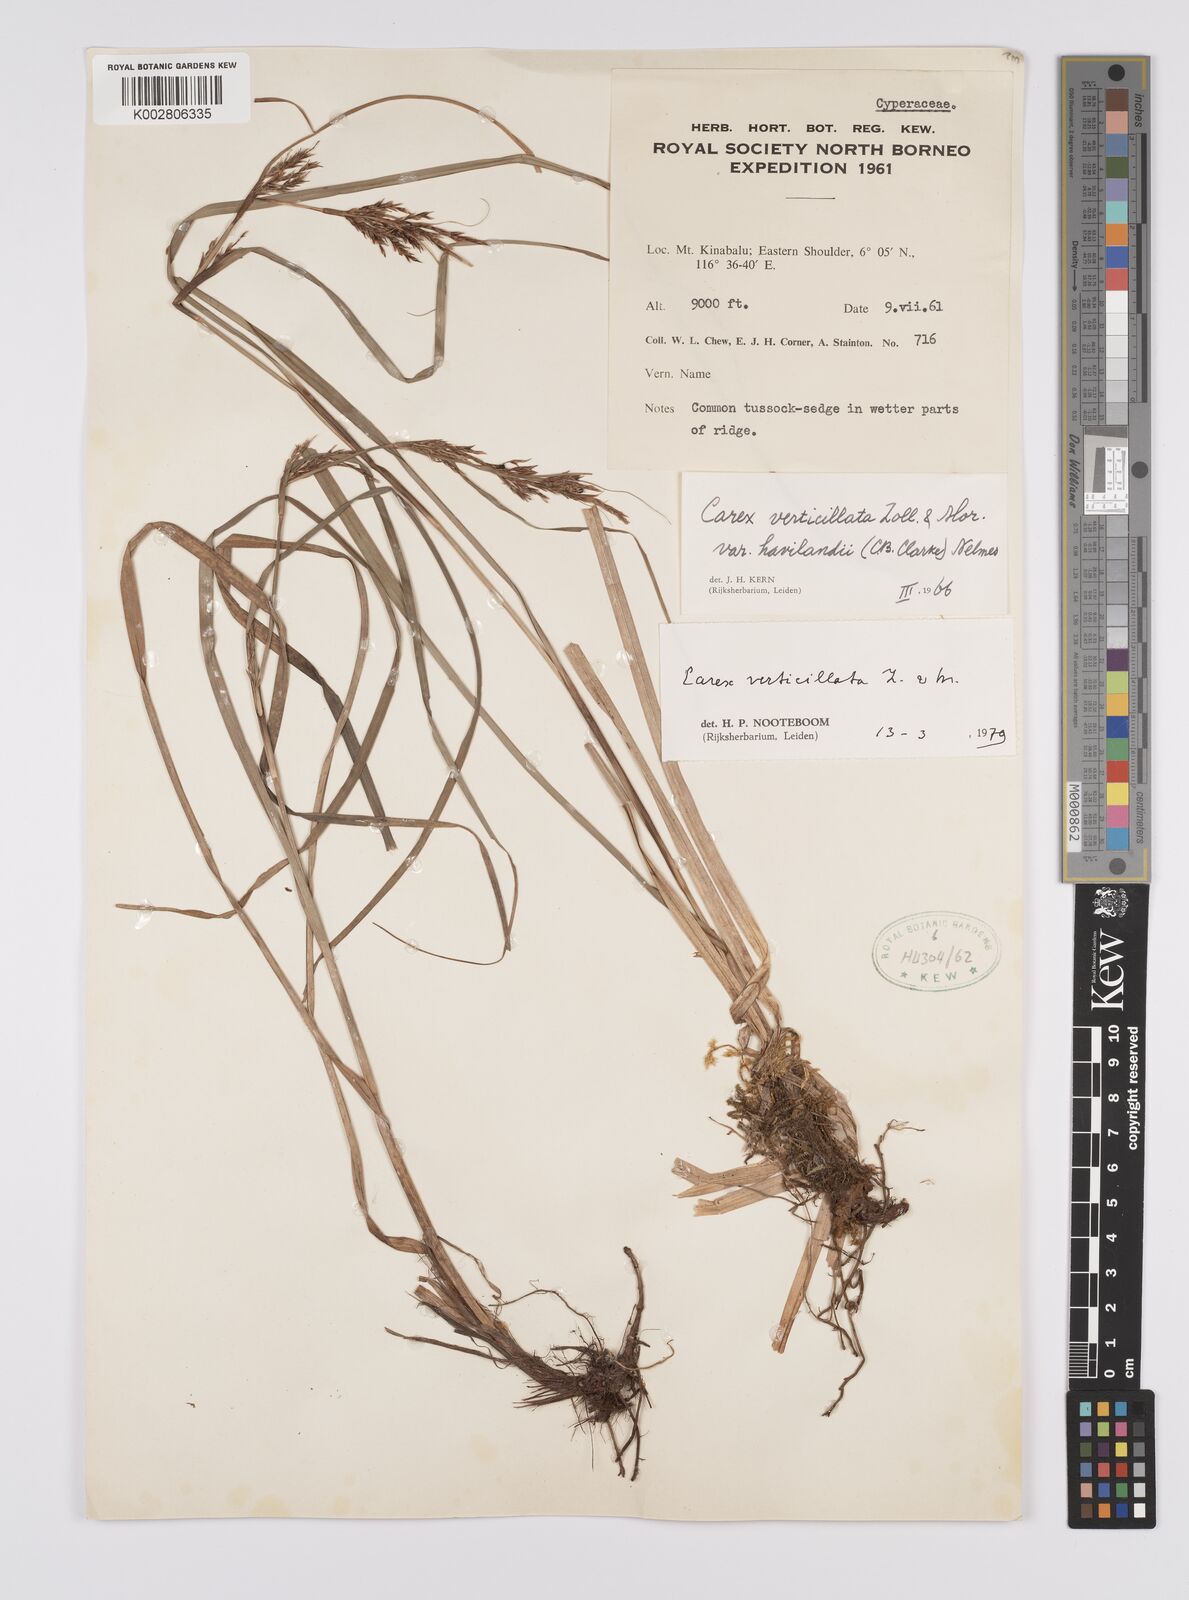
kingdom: Plantae
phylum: Tracheophyta
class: Liliopsida
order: Poales
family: Cyperaceae
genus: Carex
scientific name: Carex verticillata
